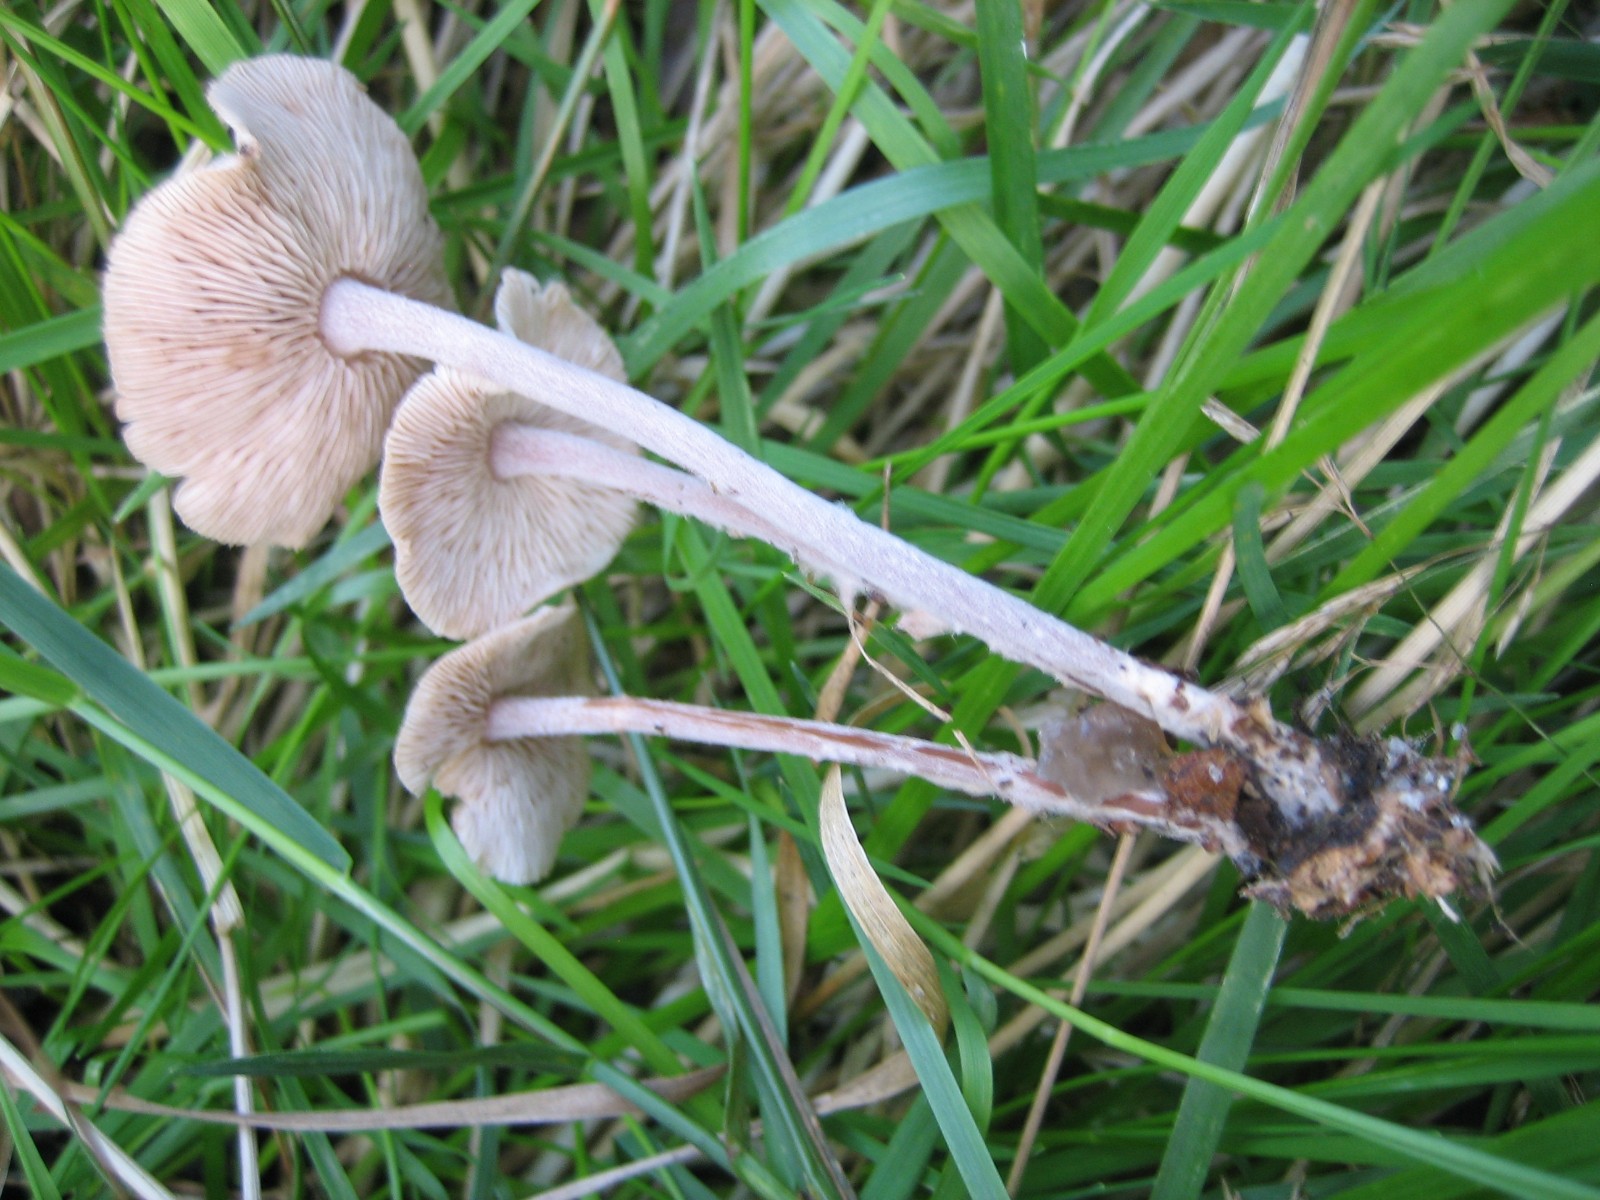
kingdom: Fungi
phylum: Basidiomycota
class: Agaricomycetes
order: Agaricales
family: Omphalotaceae
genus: Collybiopsis
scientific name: Collybiopsis confluens
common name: knippe-fladhat
